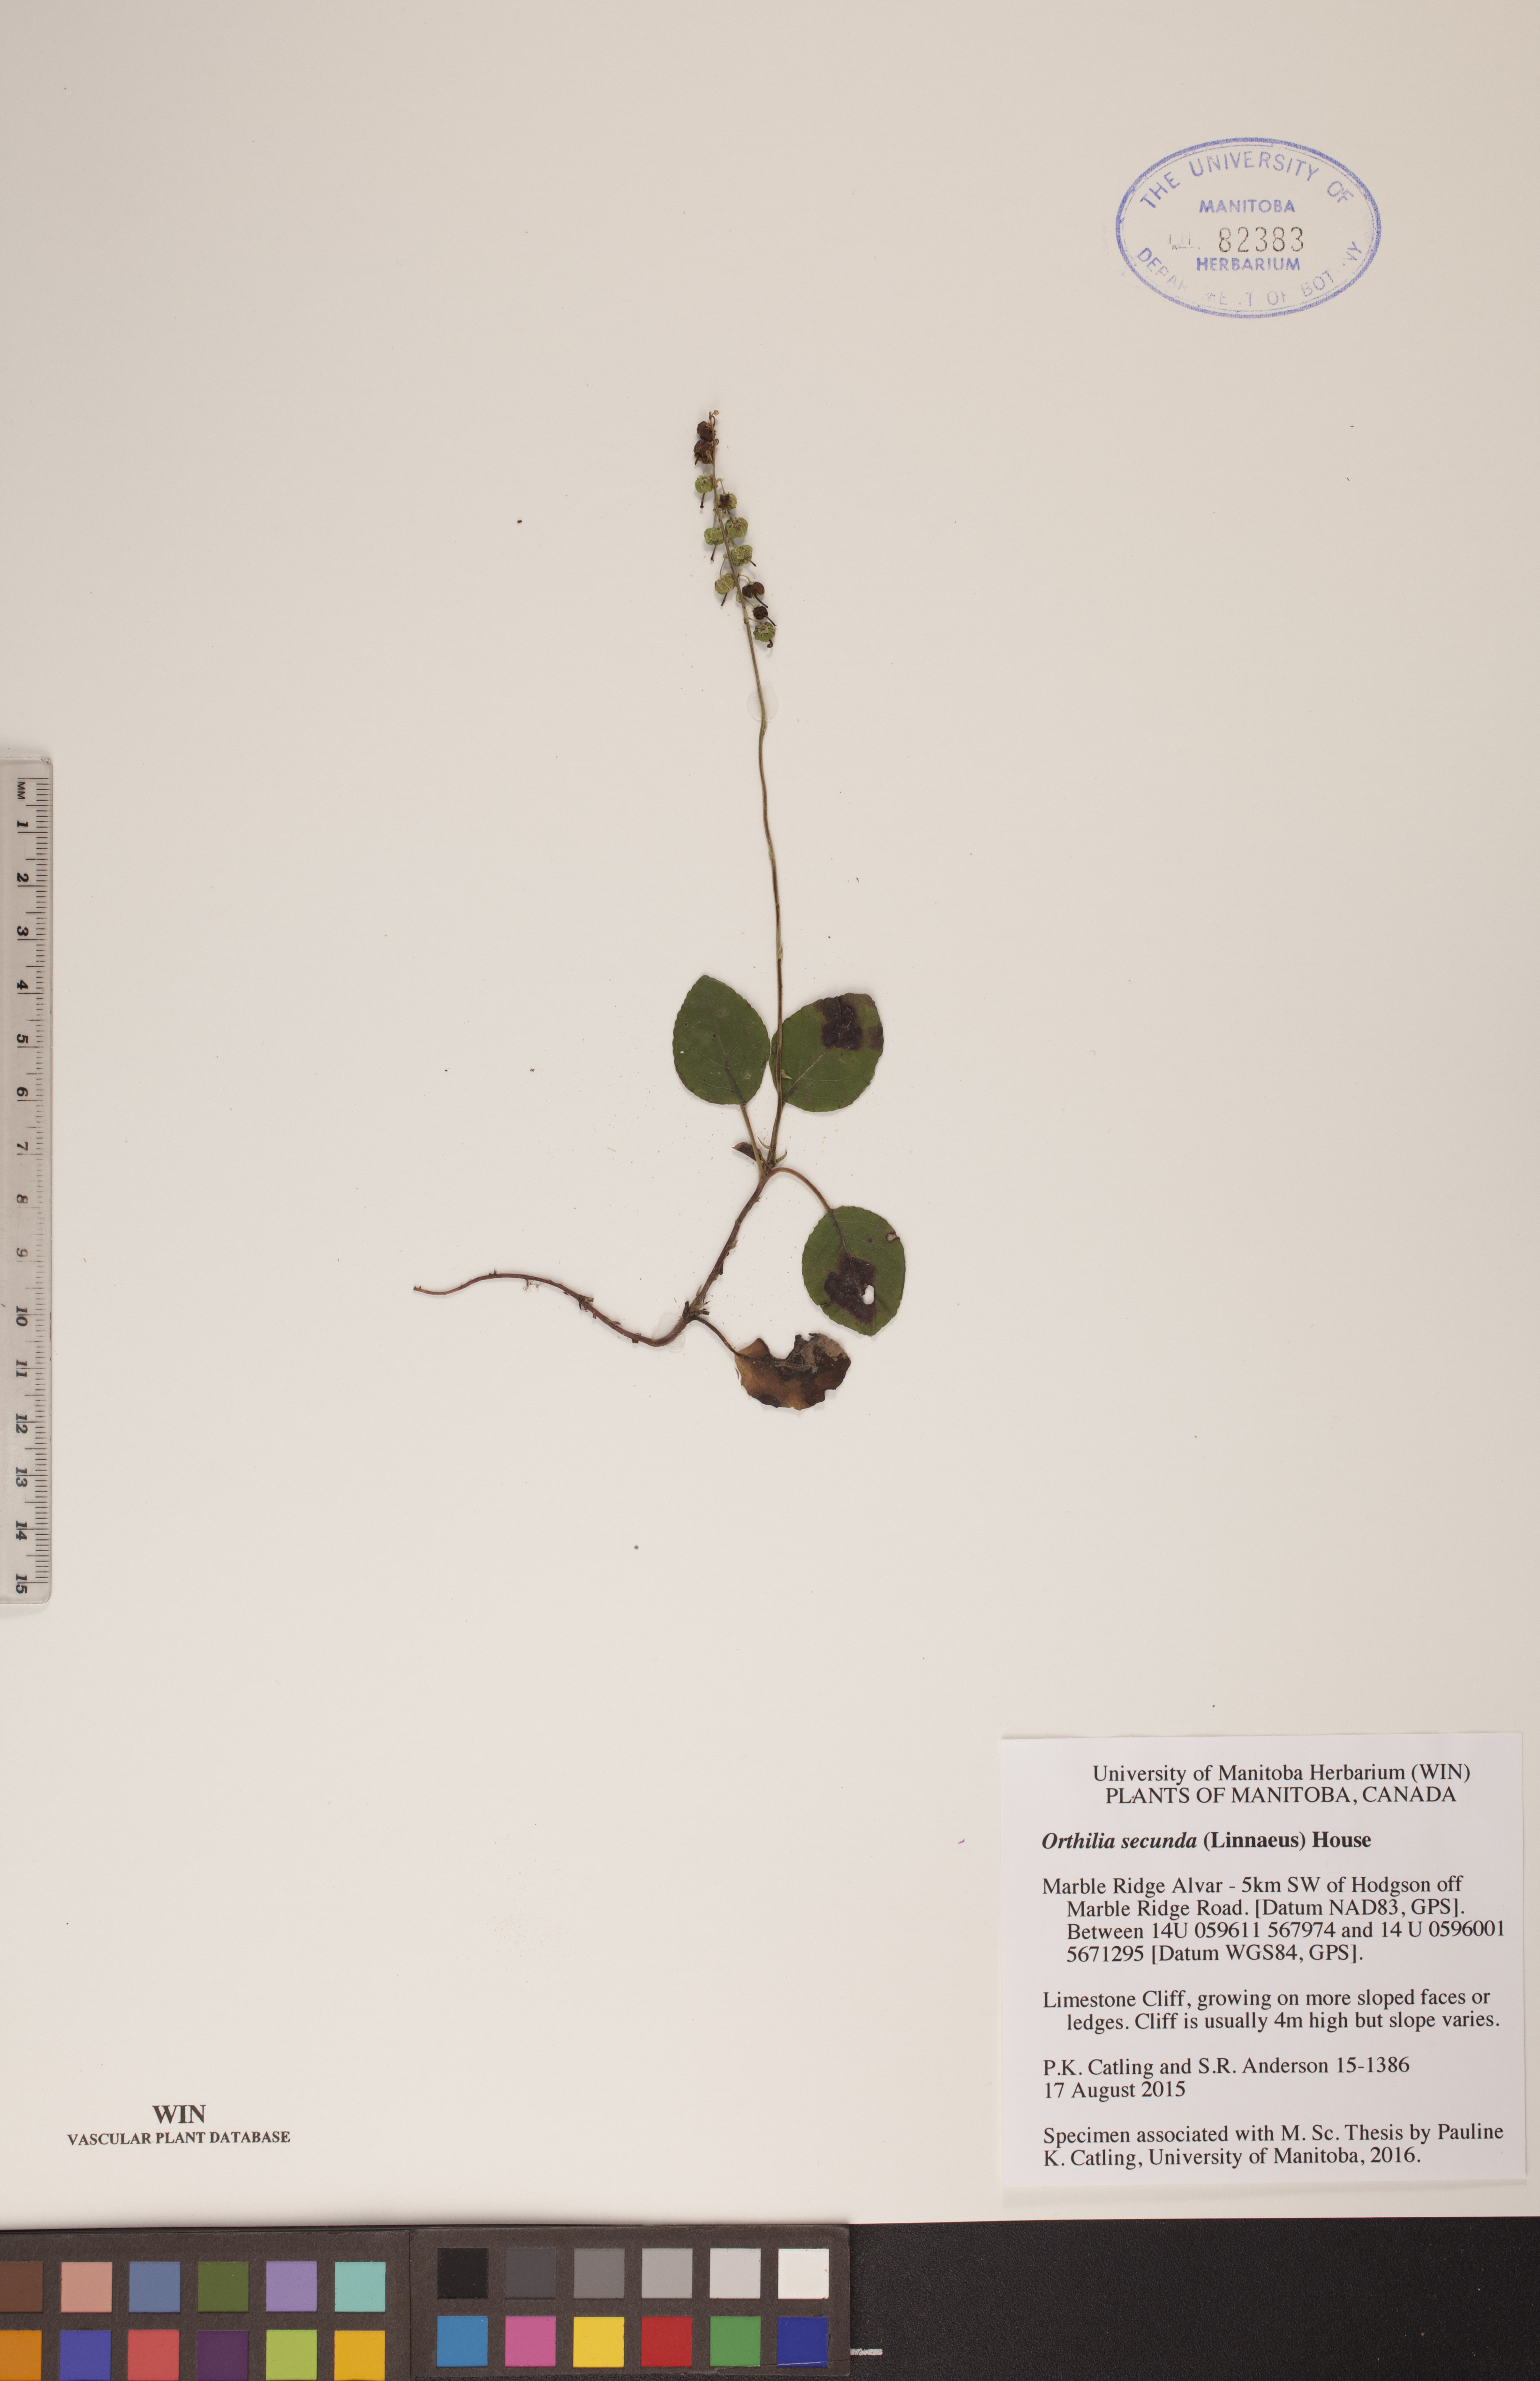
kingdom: Plantae
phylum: Tracheophyta
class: Magnoliopsida
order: Ericales
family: Ericaceae
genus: Orthilia
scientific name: Orthilia secunda
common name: One-sided orthilia
